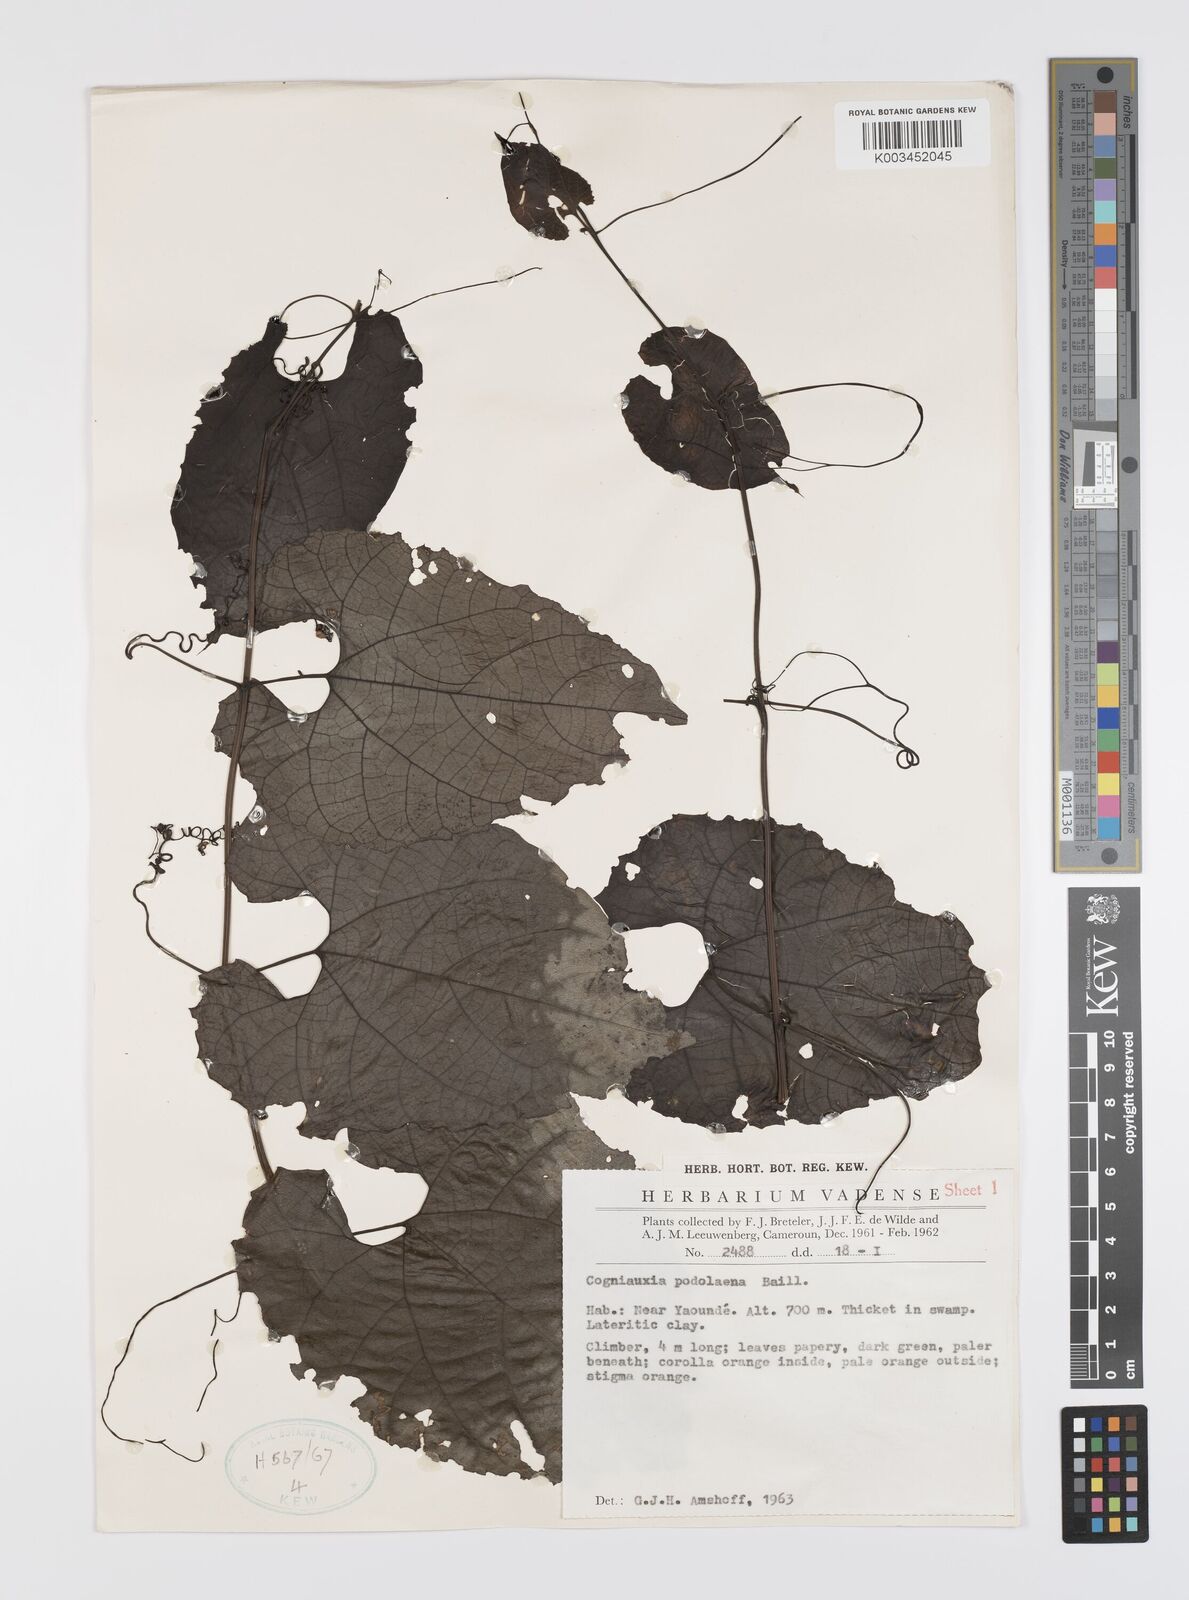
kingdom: Plantae
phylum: Tracheophyta
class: Magnoliopsida
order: Cucurbitales
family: Cucurbitaceae
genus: Cogniauxia
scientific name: Cogniauxia podolaena
